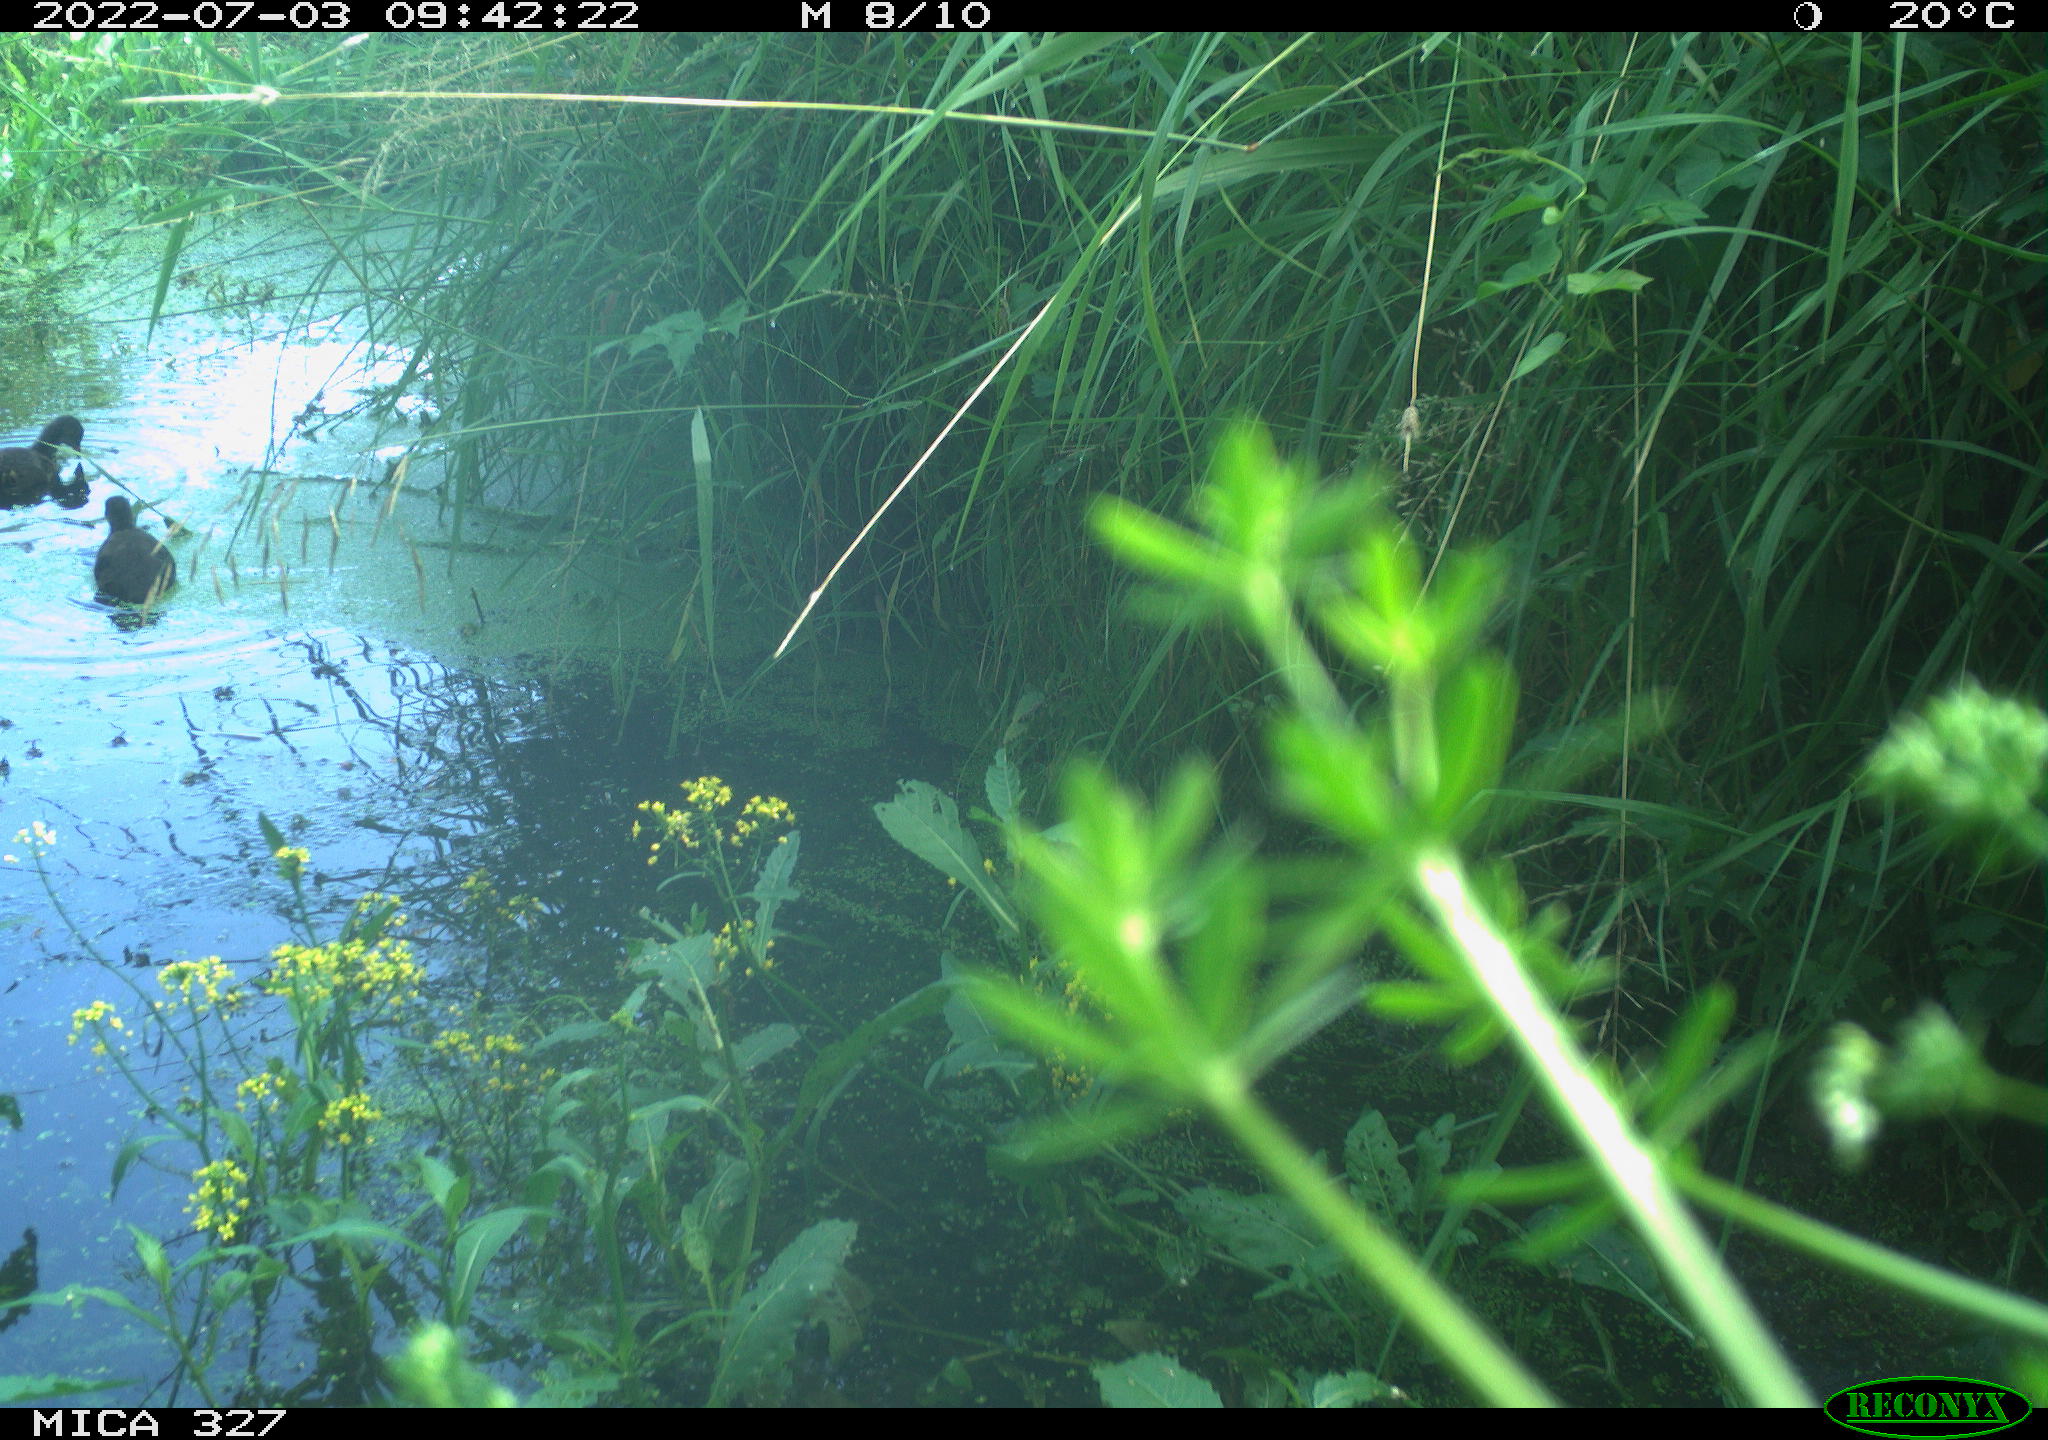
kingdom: Animalia
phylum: Chordata
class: Aves
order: Gruiformes
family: Rallidae
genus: Gallinula
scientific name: Gallinula chloropus
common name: Common moorhen
